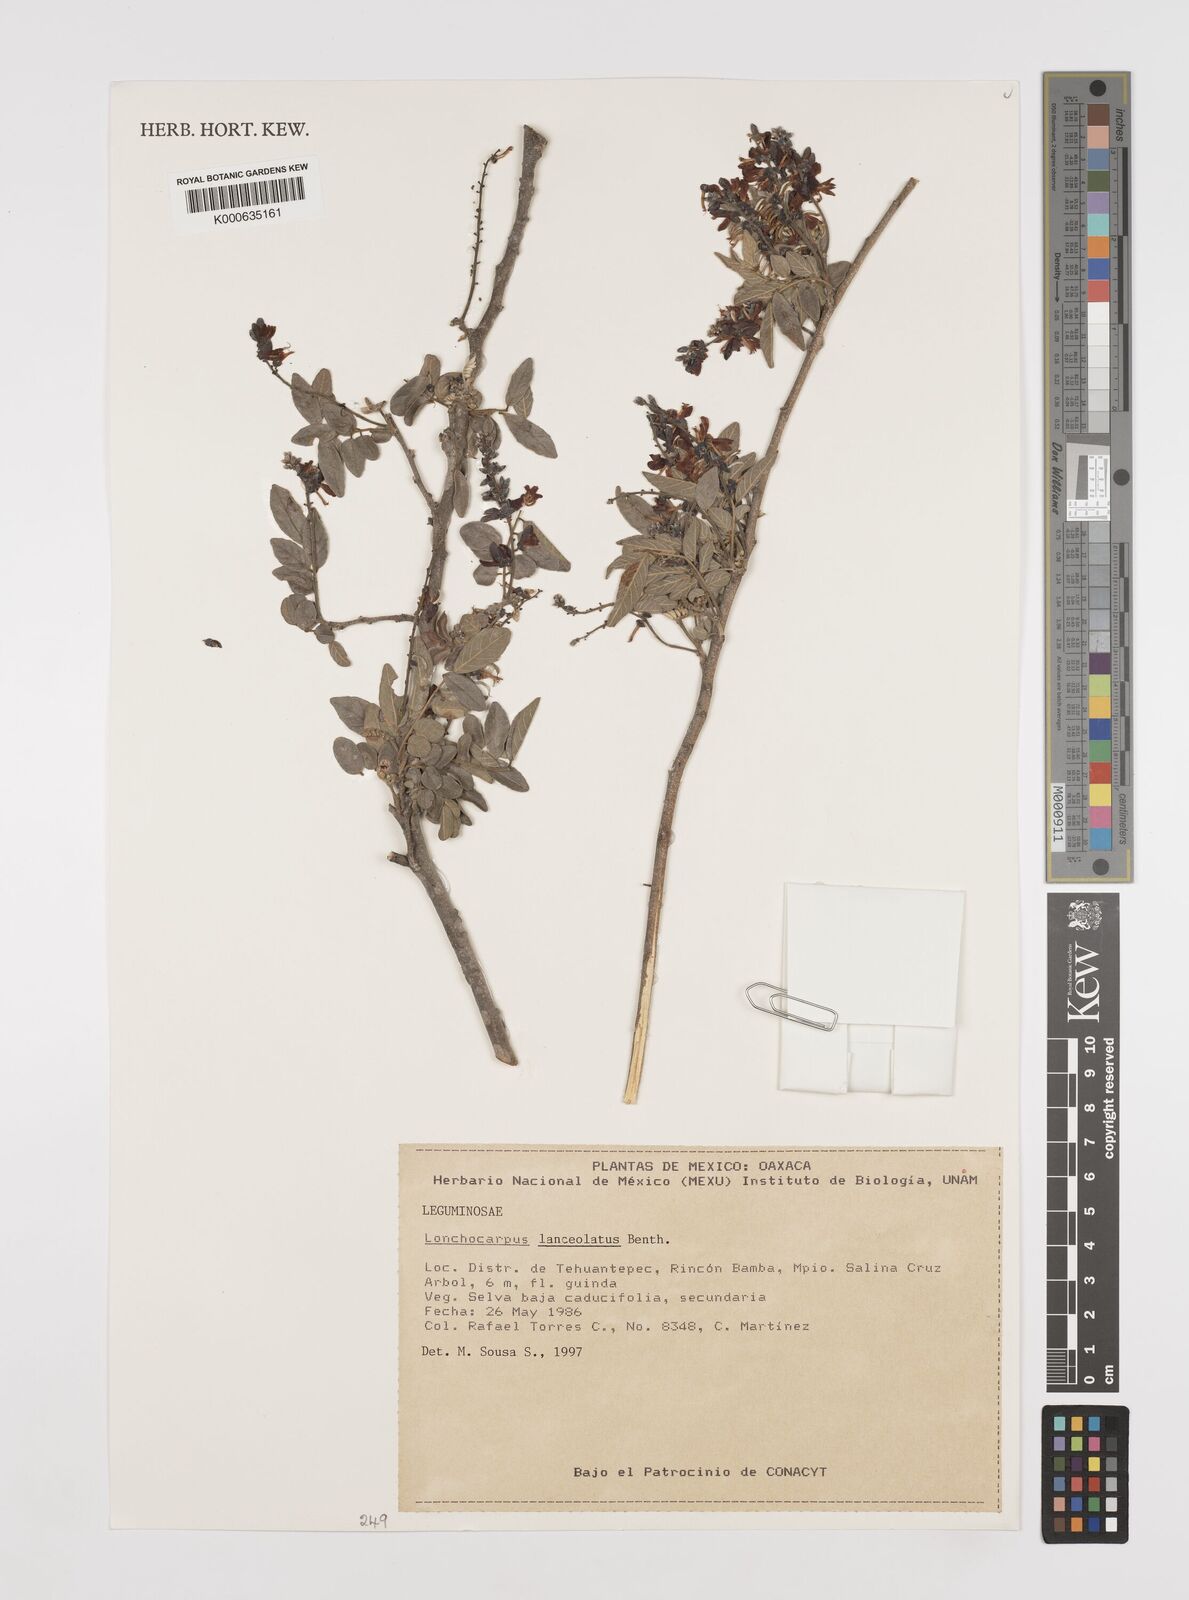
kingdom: Plantae
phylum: Tracheophyta
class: Magnoliopsida
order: Fabales
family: Fabaceae
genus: Lonchocarpus
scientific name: Lonchocarpus lanceolatus
